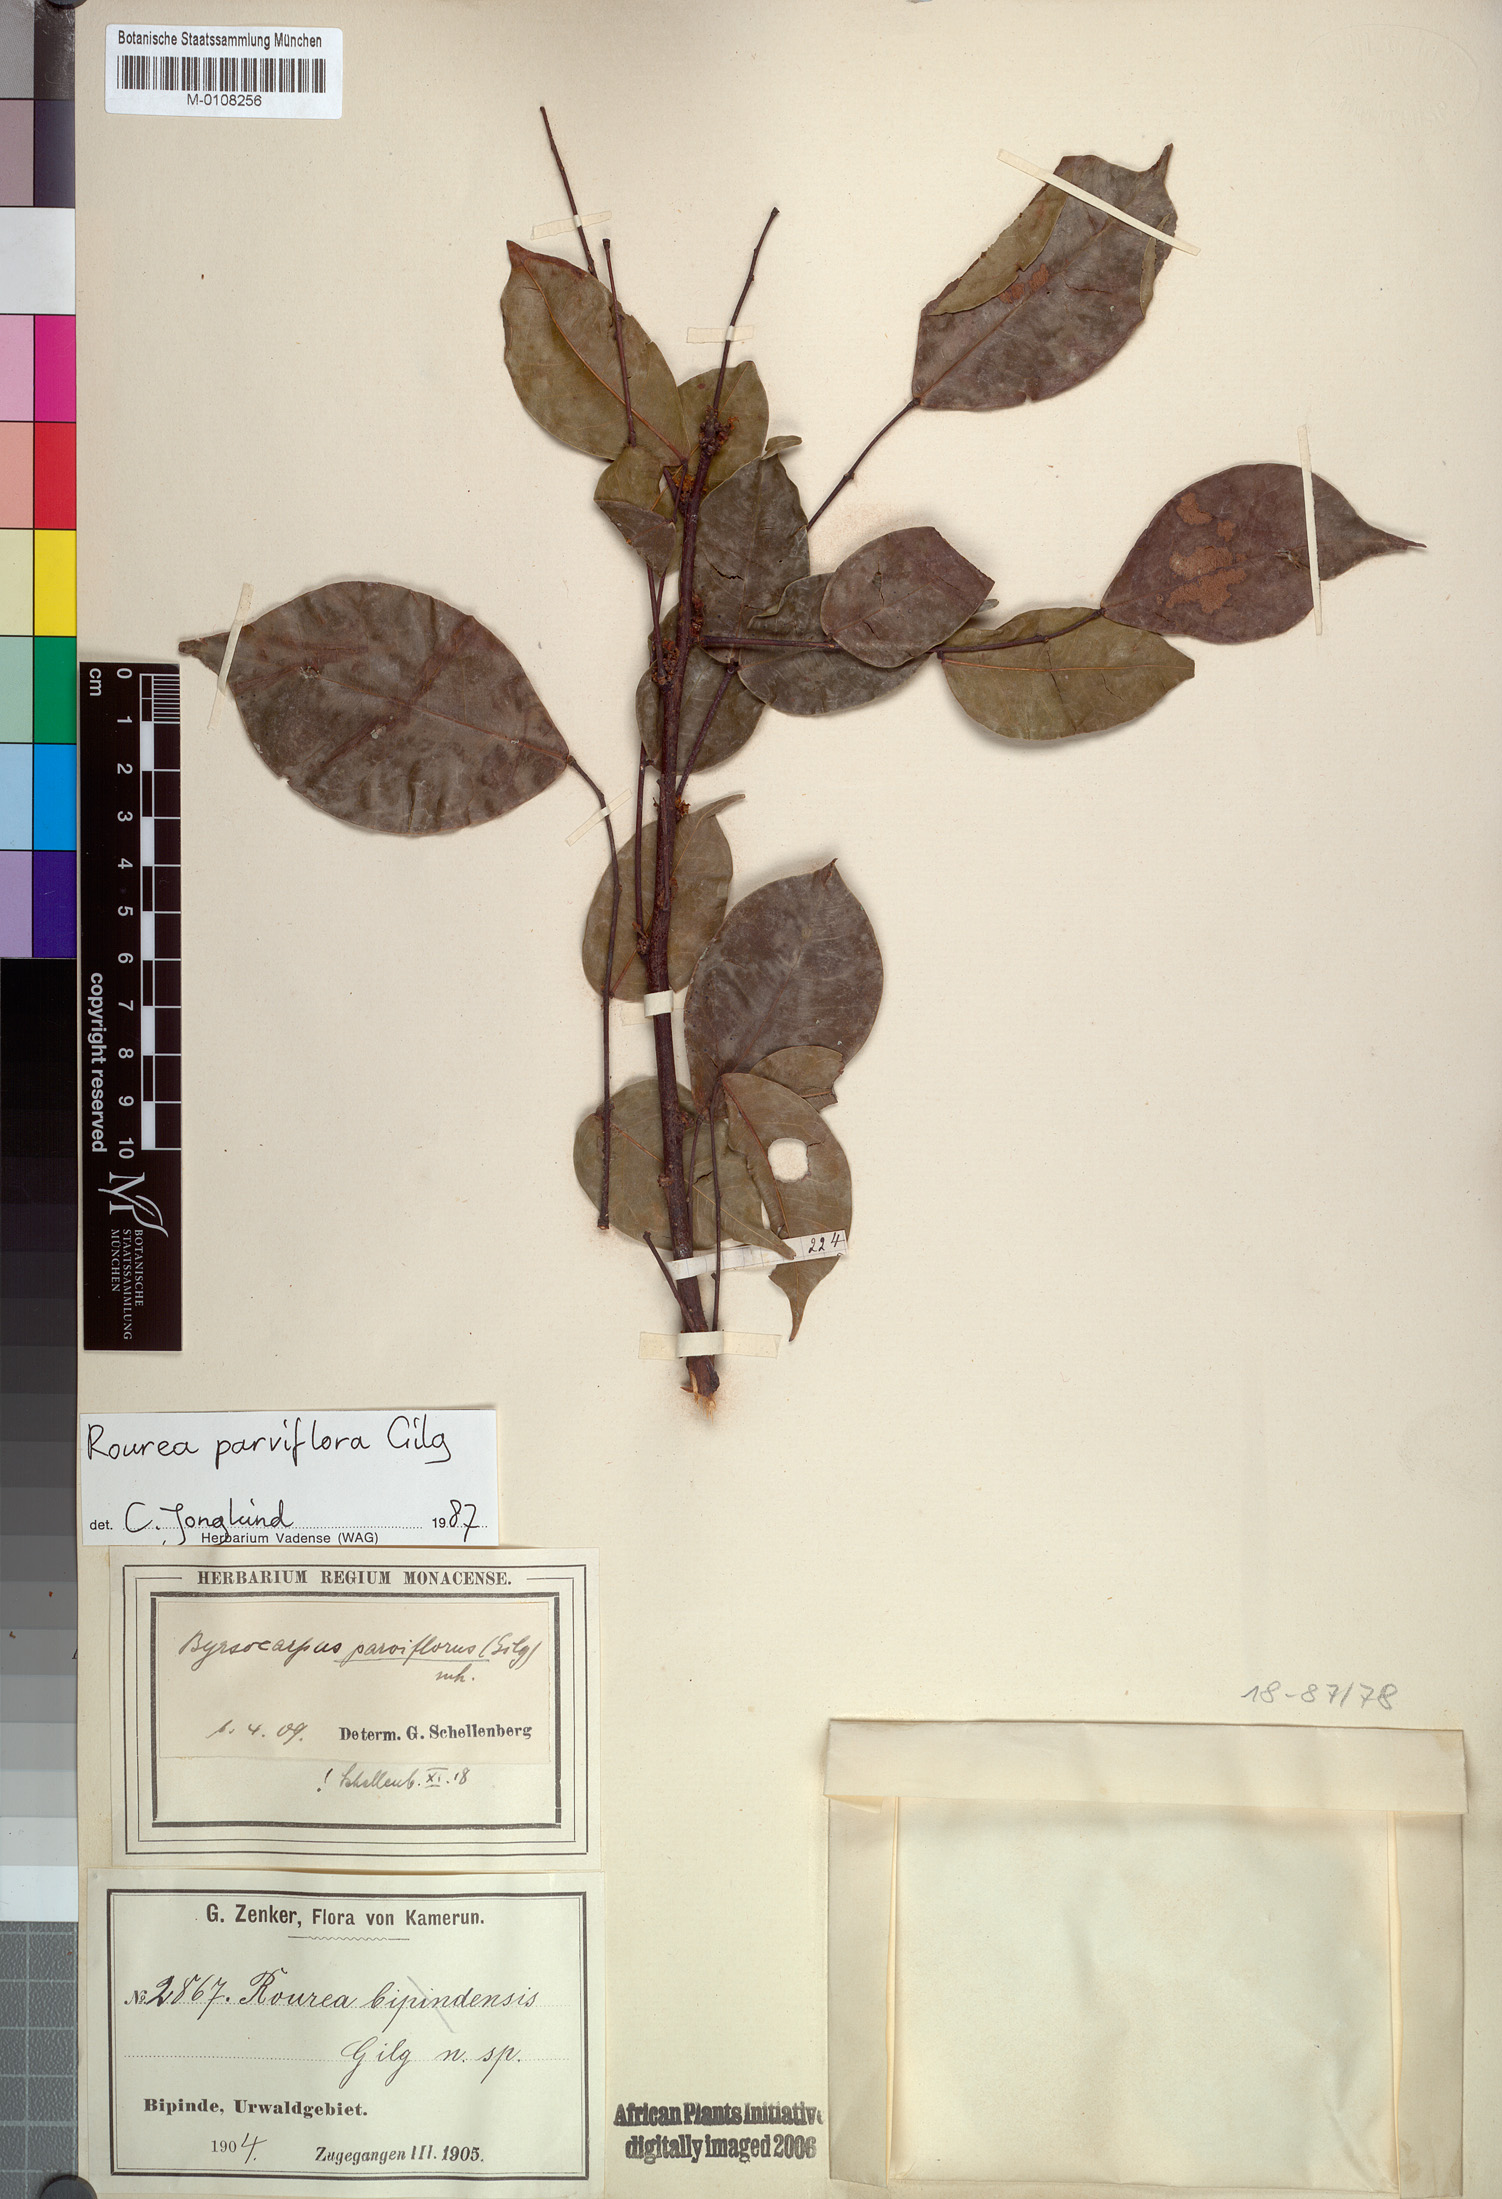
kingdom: Plantae
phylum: Tracheophyta
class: Magnoliopsida
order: Oxalidales
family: Connaraceae
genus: Rourea
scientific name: Rourea parviflora
